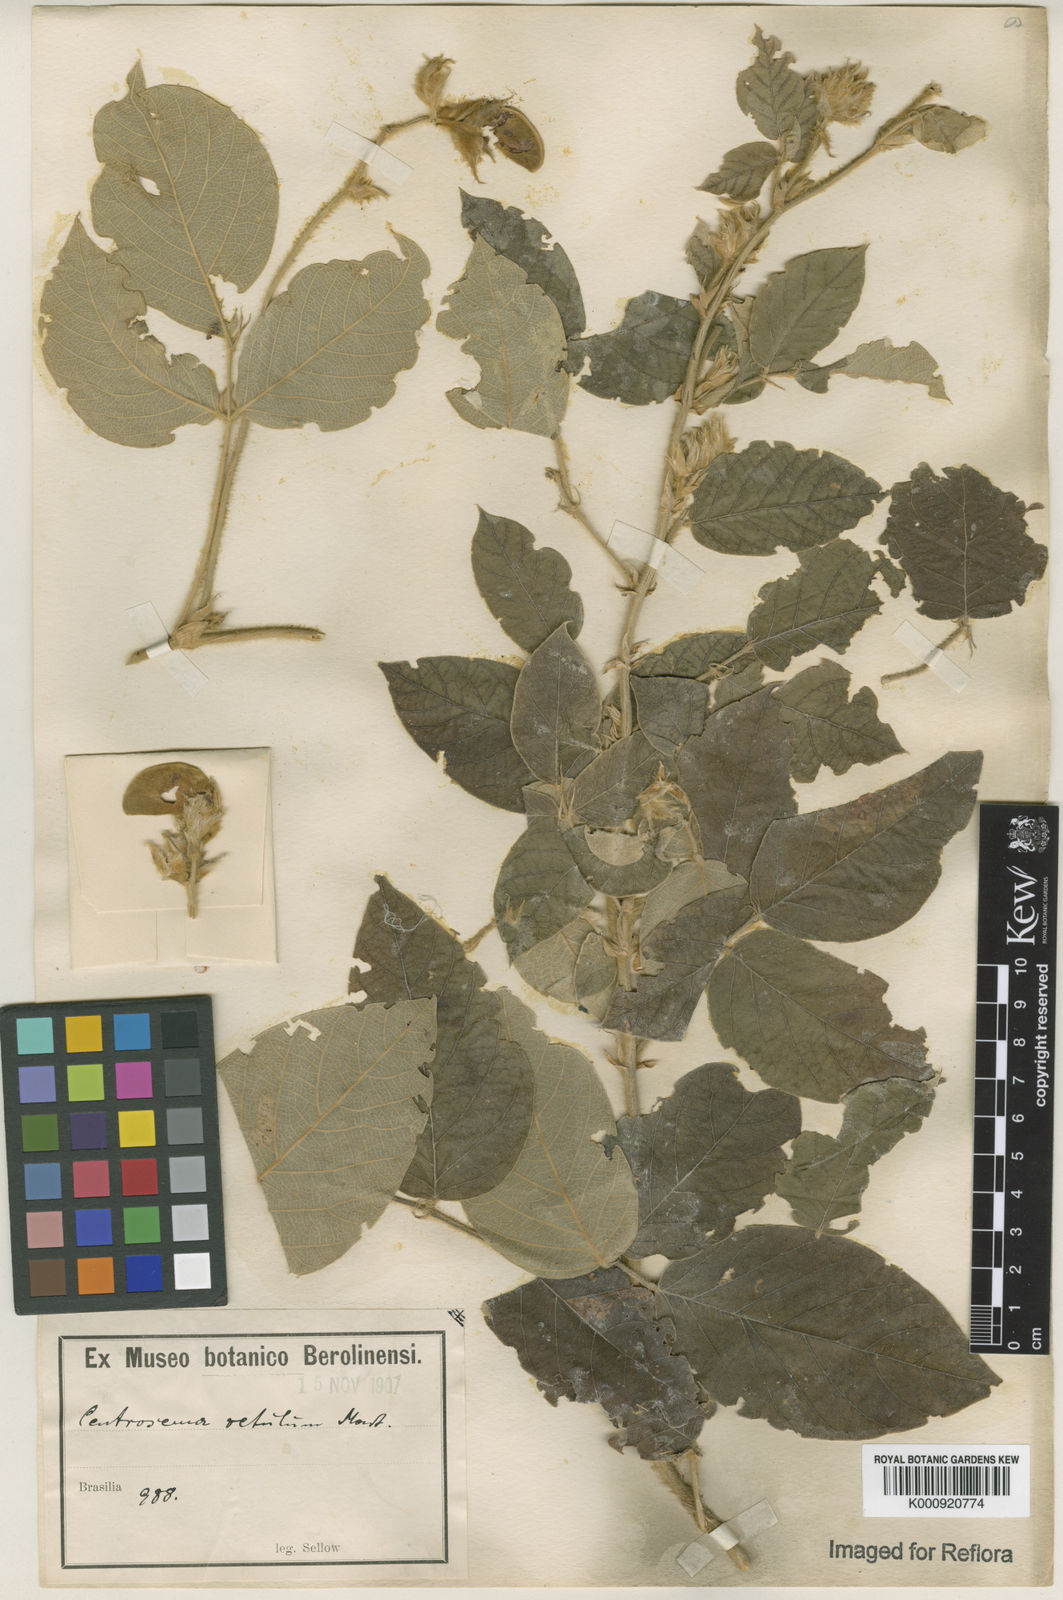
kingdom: Plantae
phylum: Tracheophyta
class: Magnoliopsida
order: Fabales
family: Fabaceae
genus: Centrosema
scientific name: Centrosema dasyanthum
